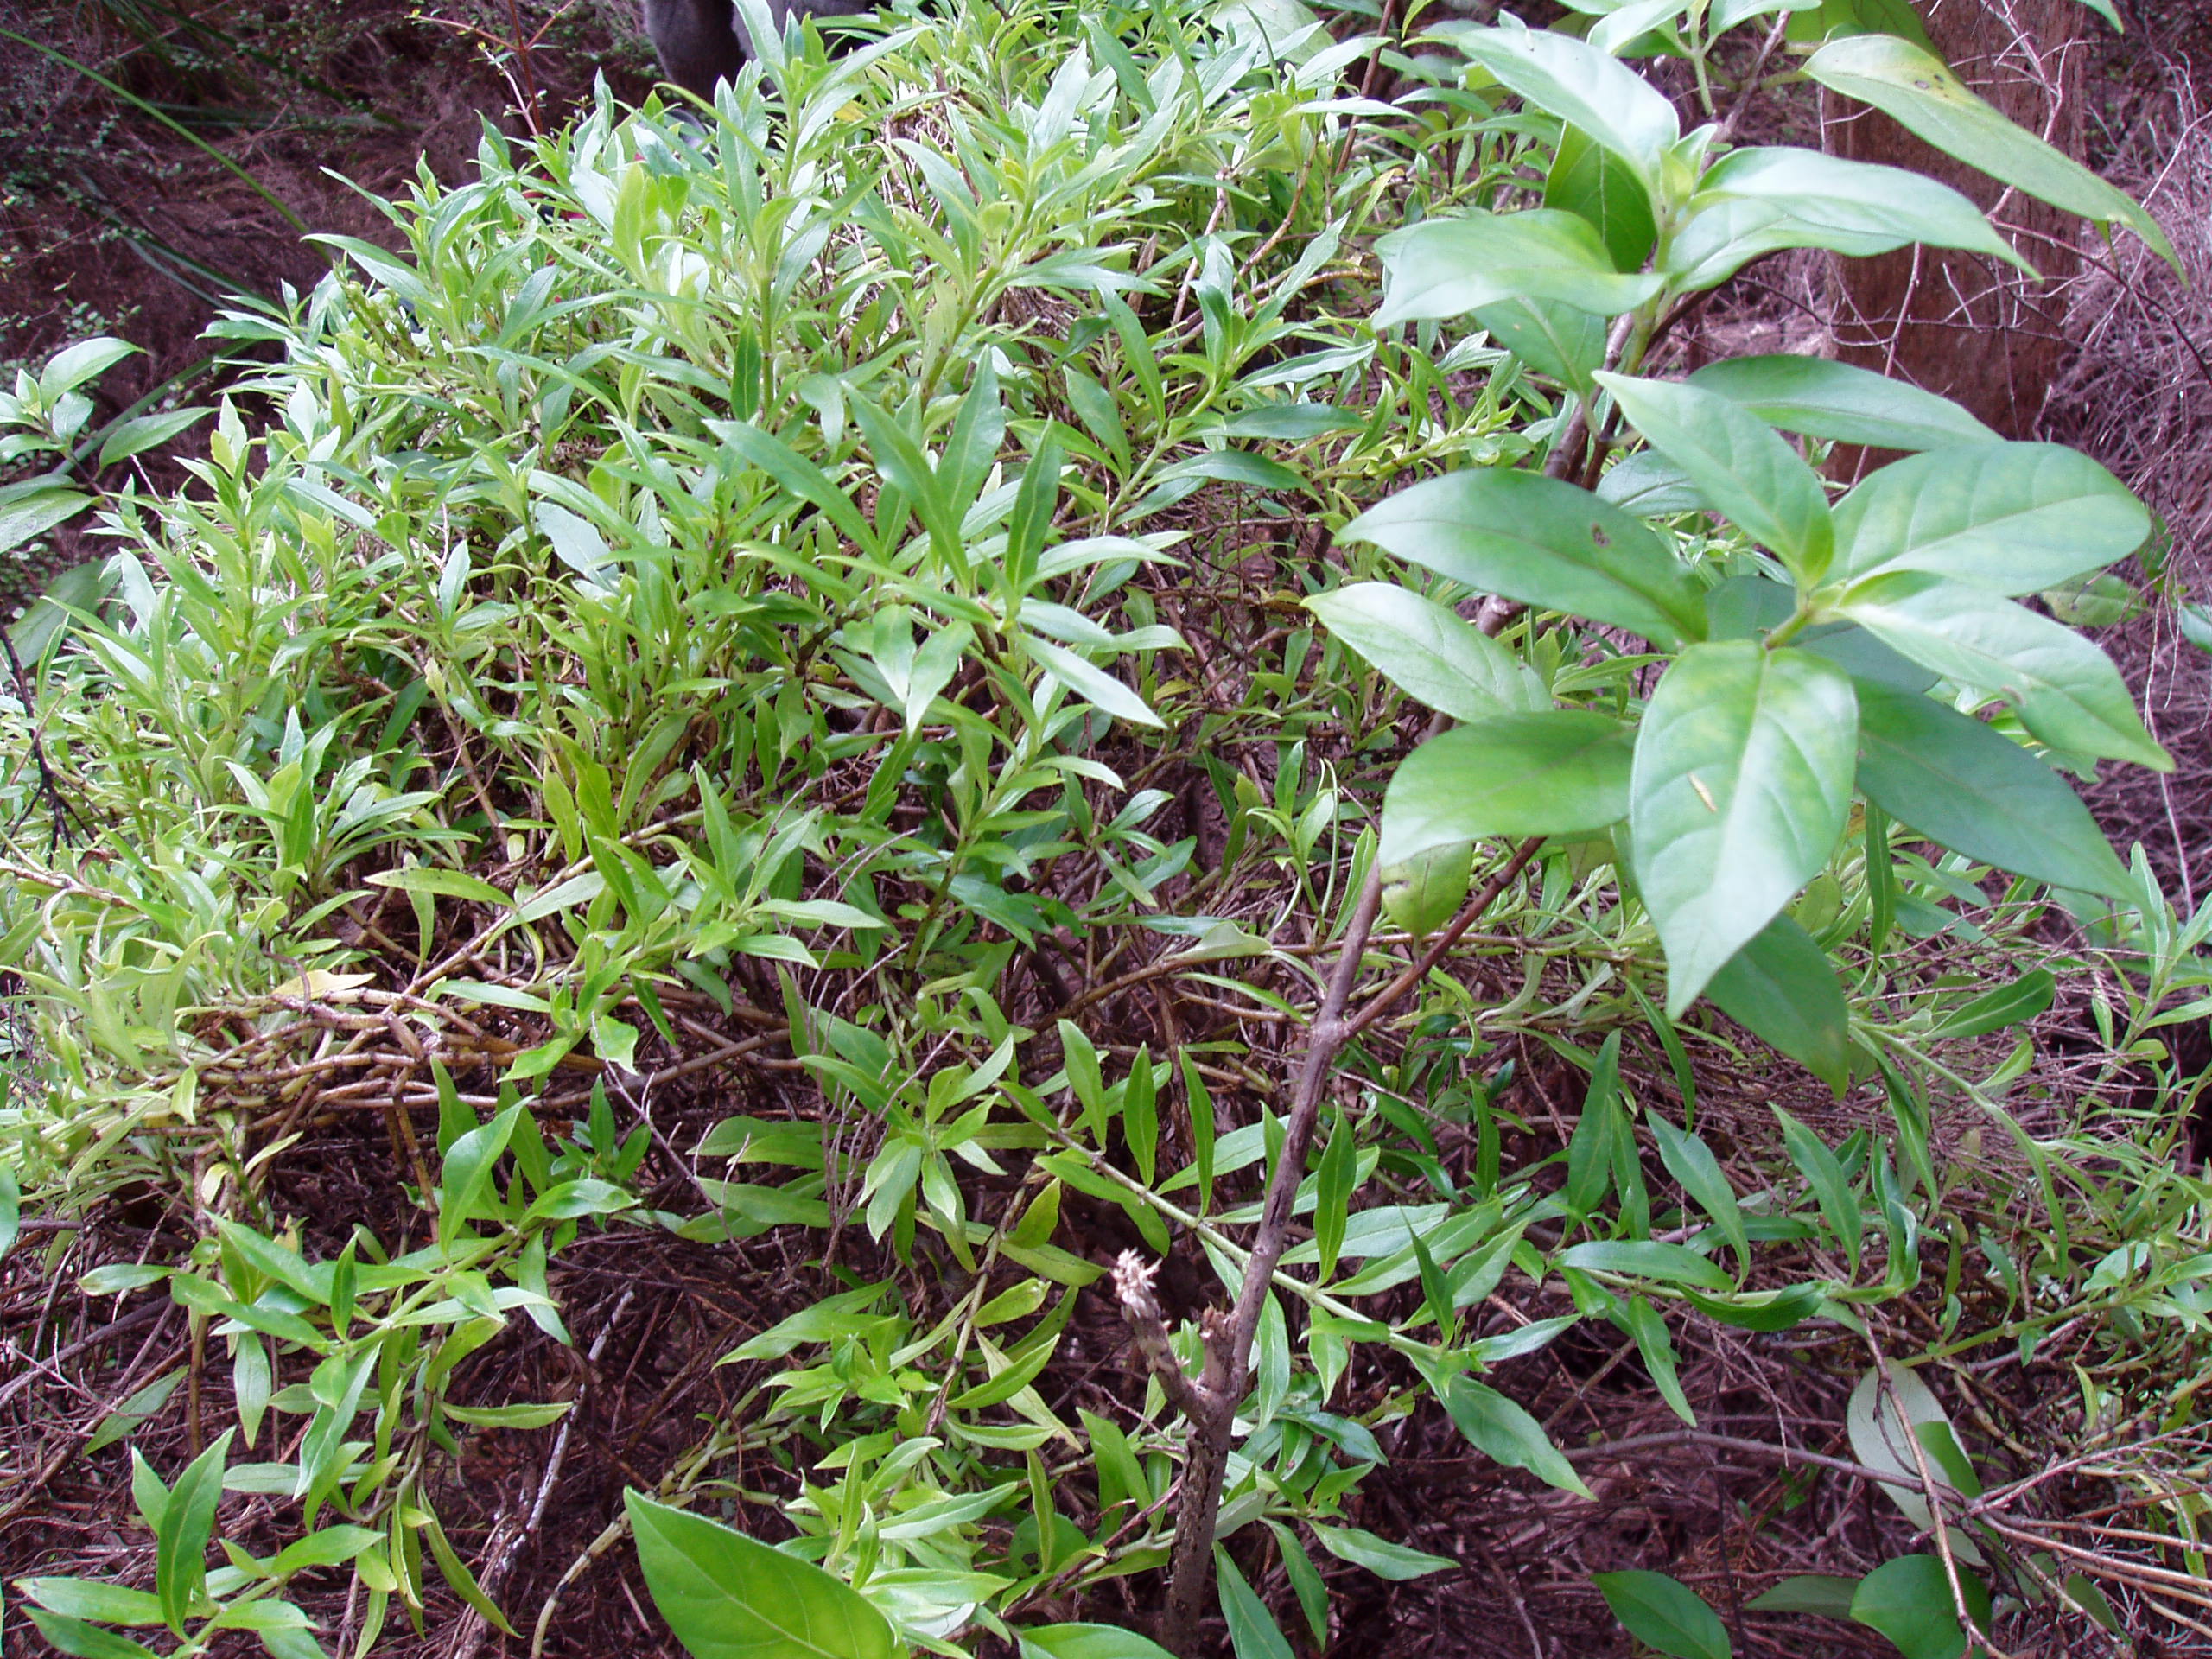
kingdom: Plantae
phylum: Tracheophyta
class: Magnoliopsida
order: Gentianales
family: Loganiaceae
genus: Geniostoma
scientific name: Geniostoma ligustrifolium
